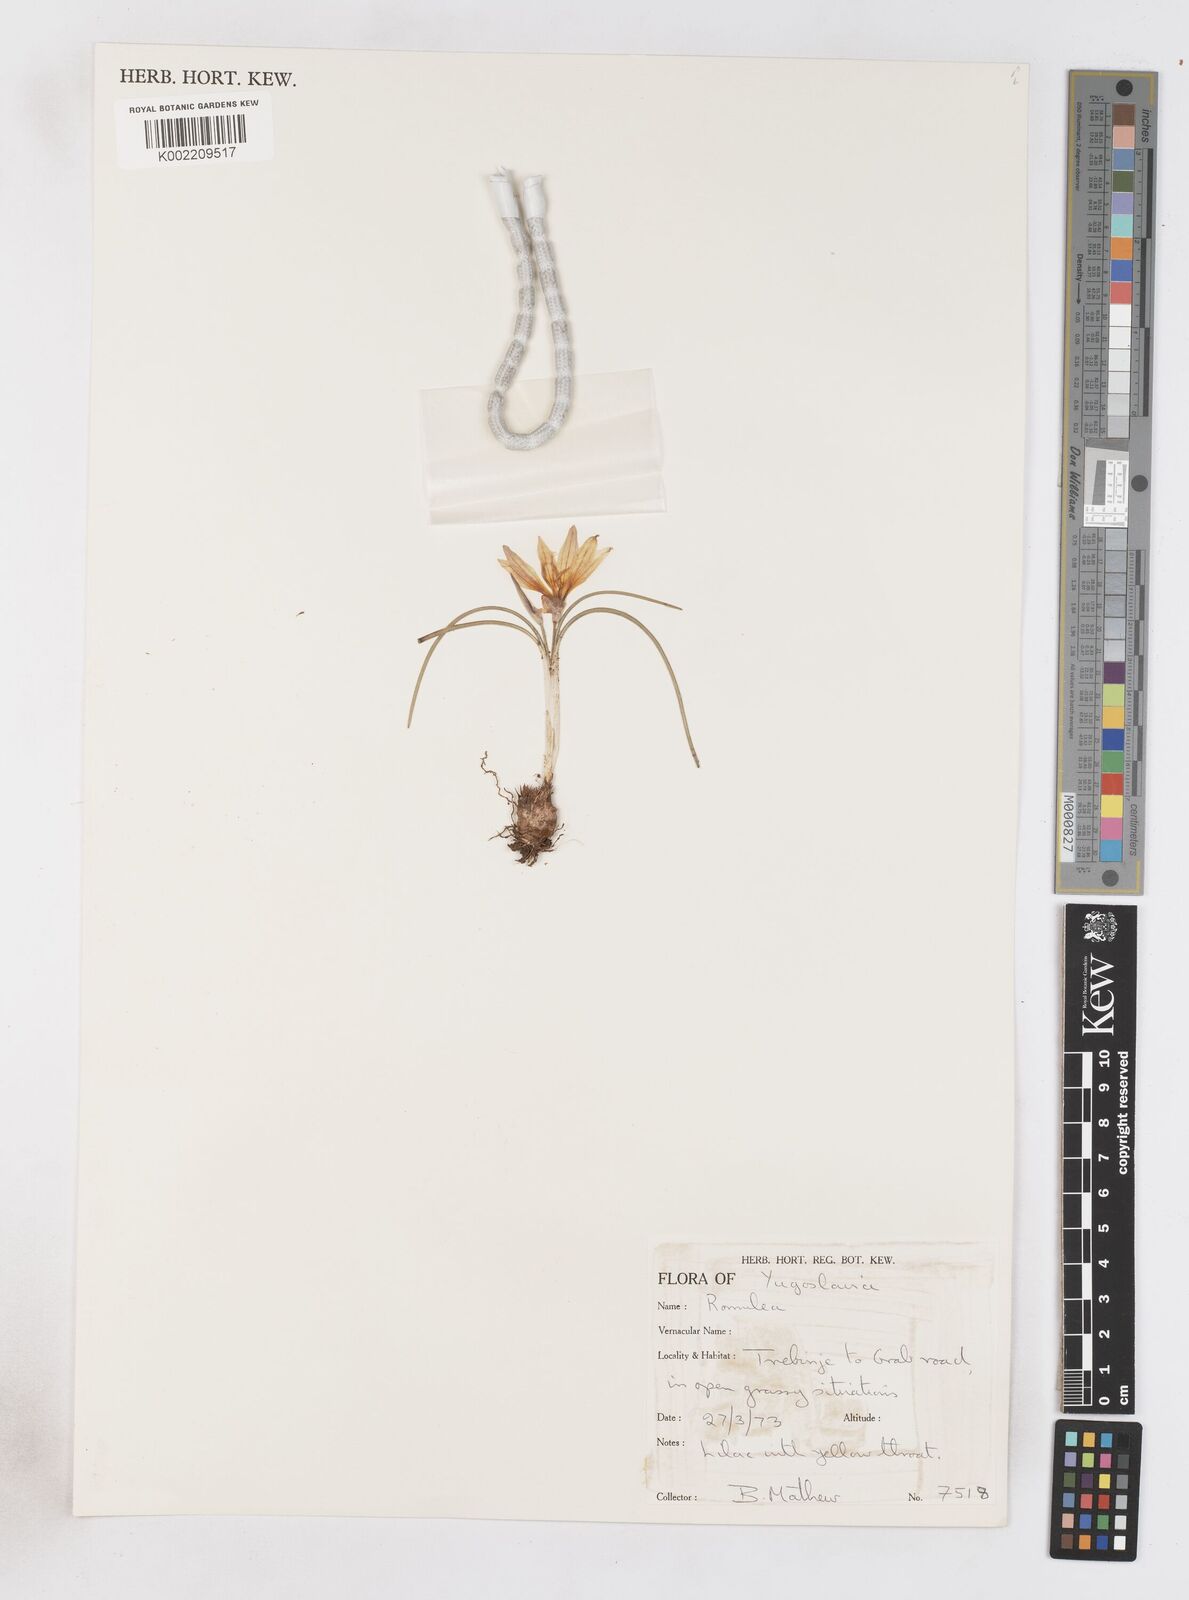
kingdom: Plantae
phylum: Tracheophyta
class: Liliopsida
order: Asparagales
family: Iridaceae
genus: Romulea
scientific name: Romulea bulbocodium
